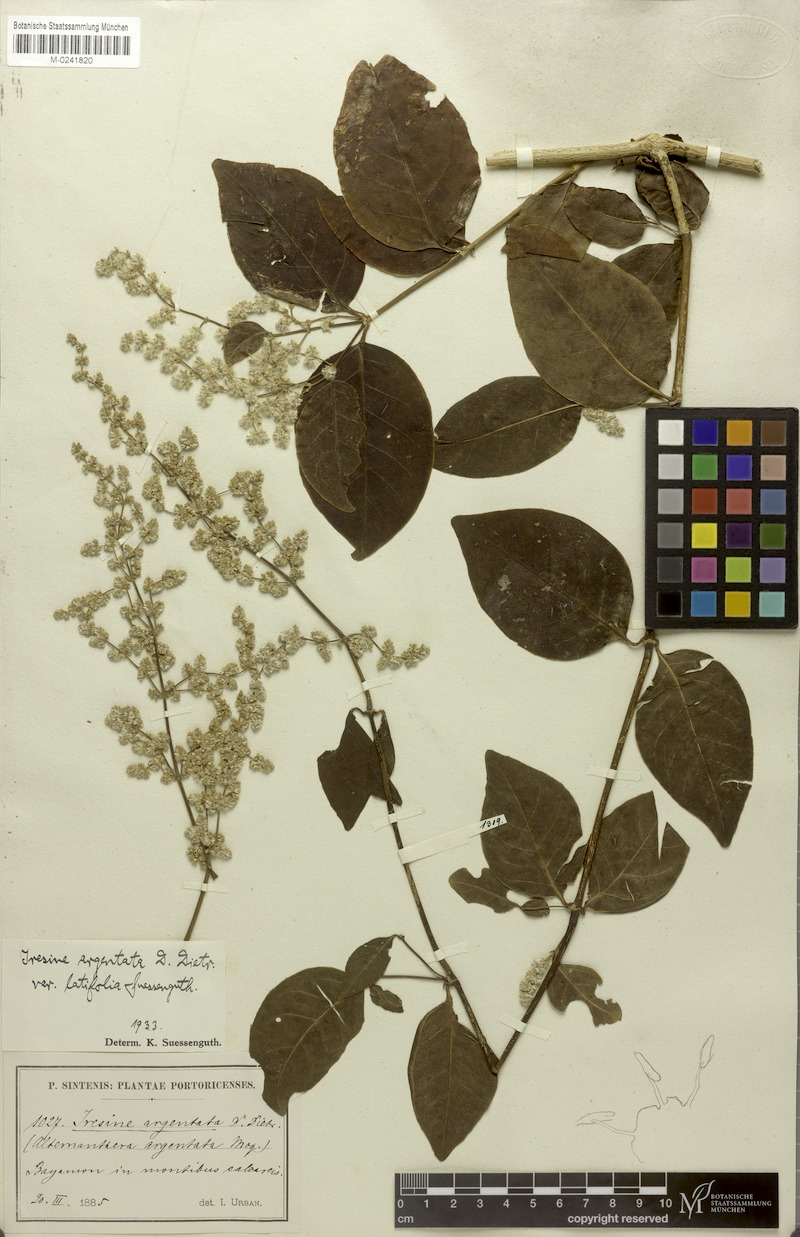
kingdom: Plantae
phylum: Tracheophyta
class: Magnoliopsida
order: Caryophyllales
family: Amaranthaceae
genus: Pedersenia
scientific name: Pedersenia argentata
